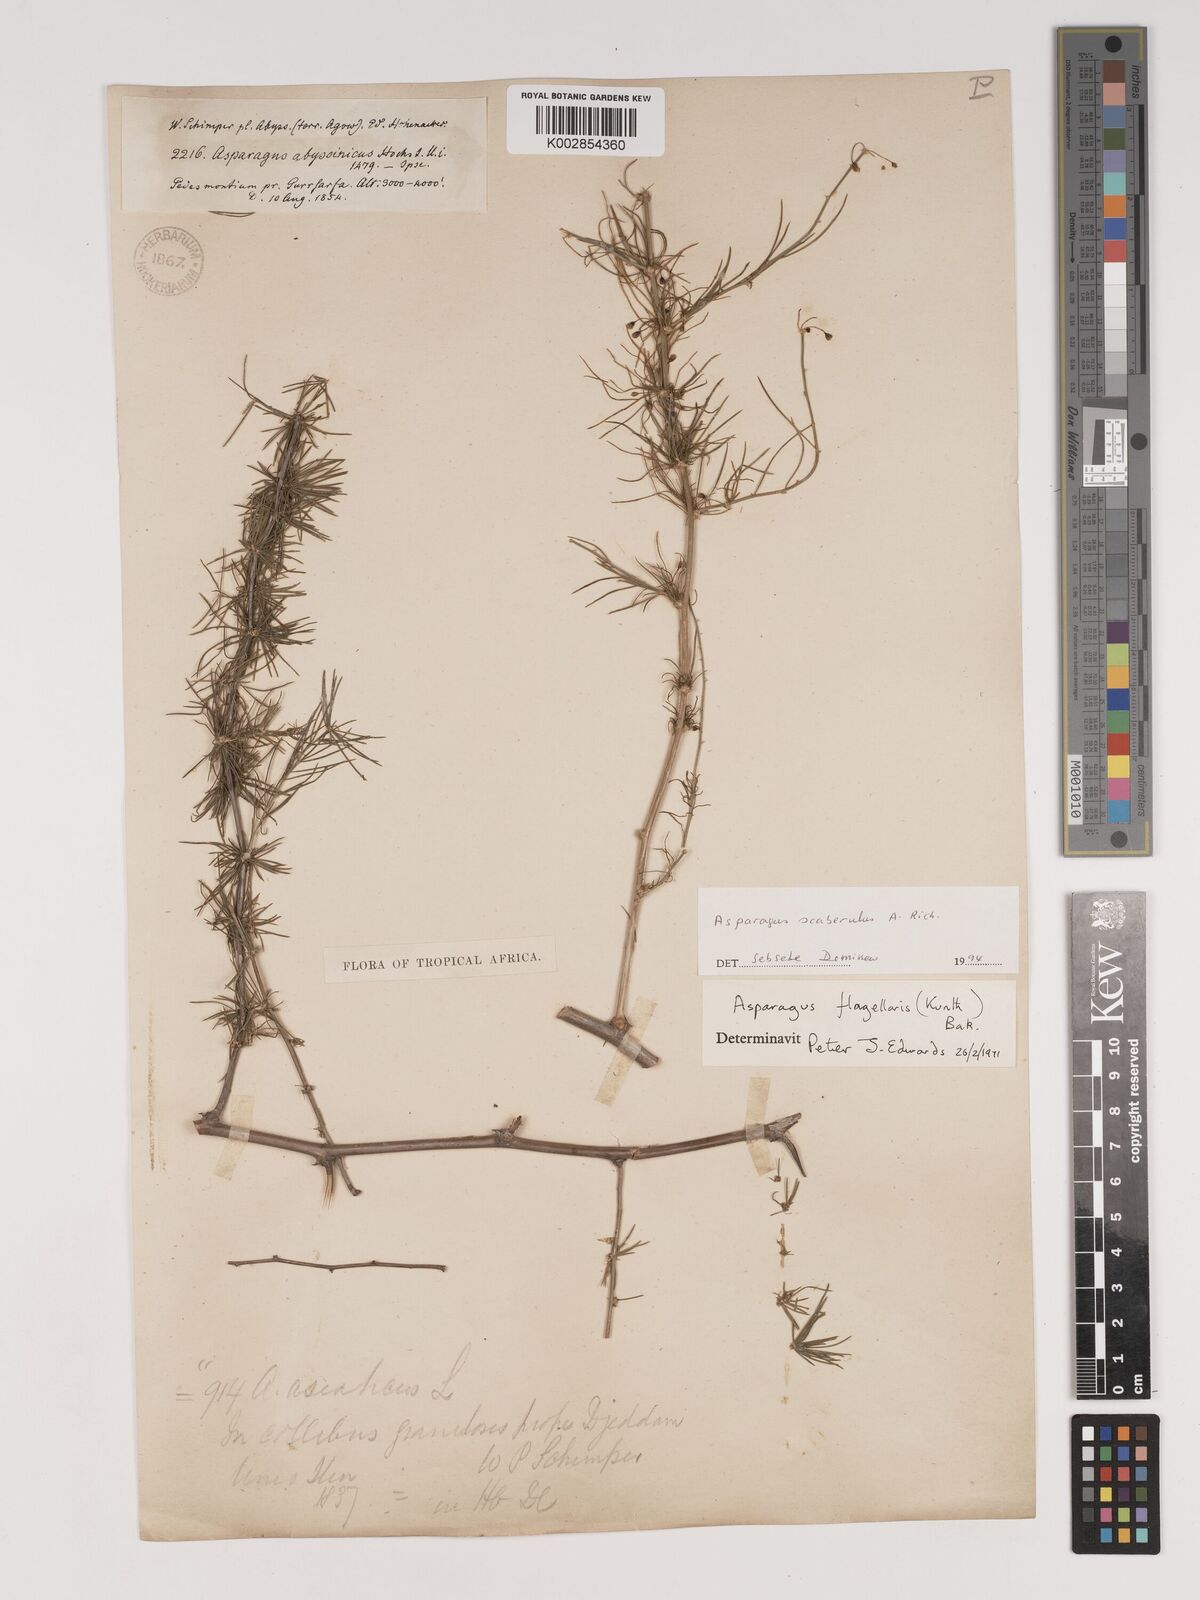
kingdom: Plantae
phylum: Tracheophyta
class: Liliopsida
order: Asparagales
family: Asparagaceae
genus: Asparagus
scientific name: Asparagus scaberulus
